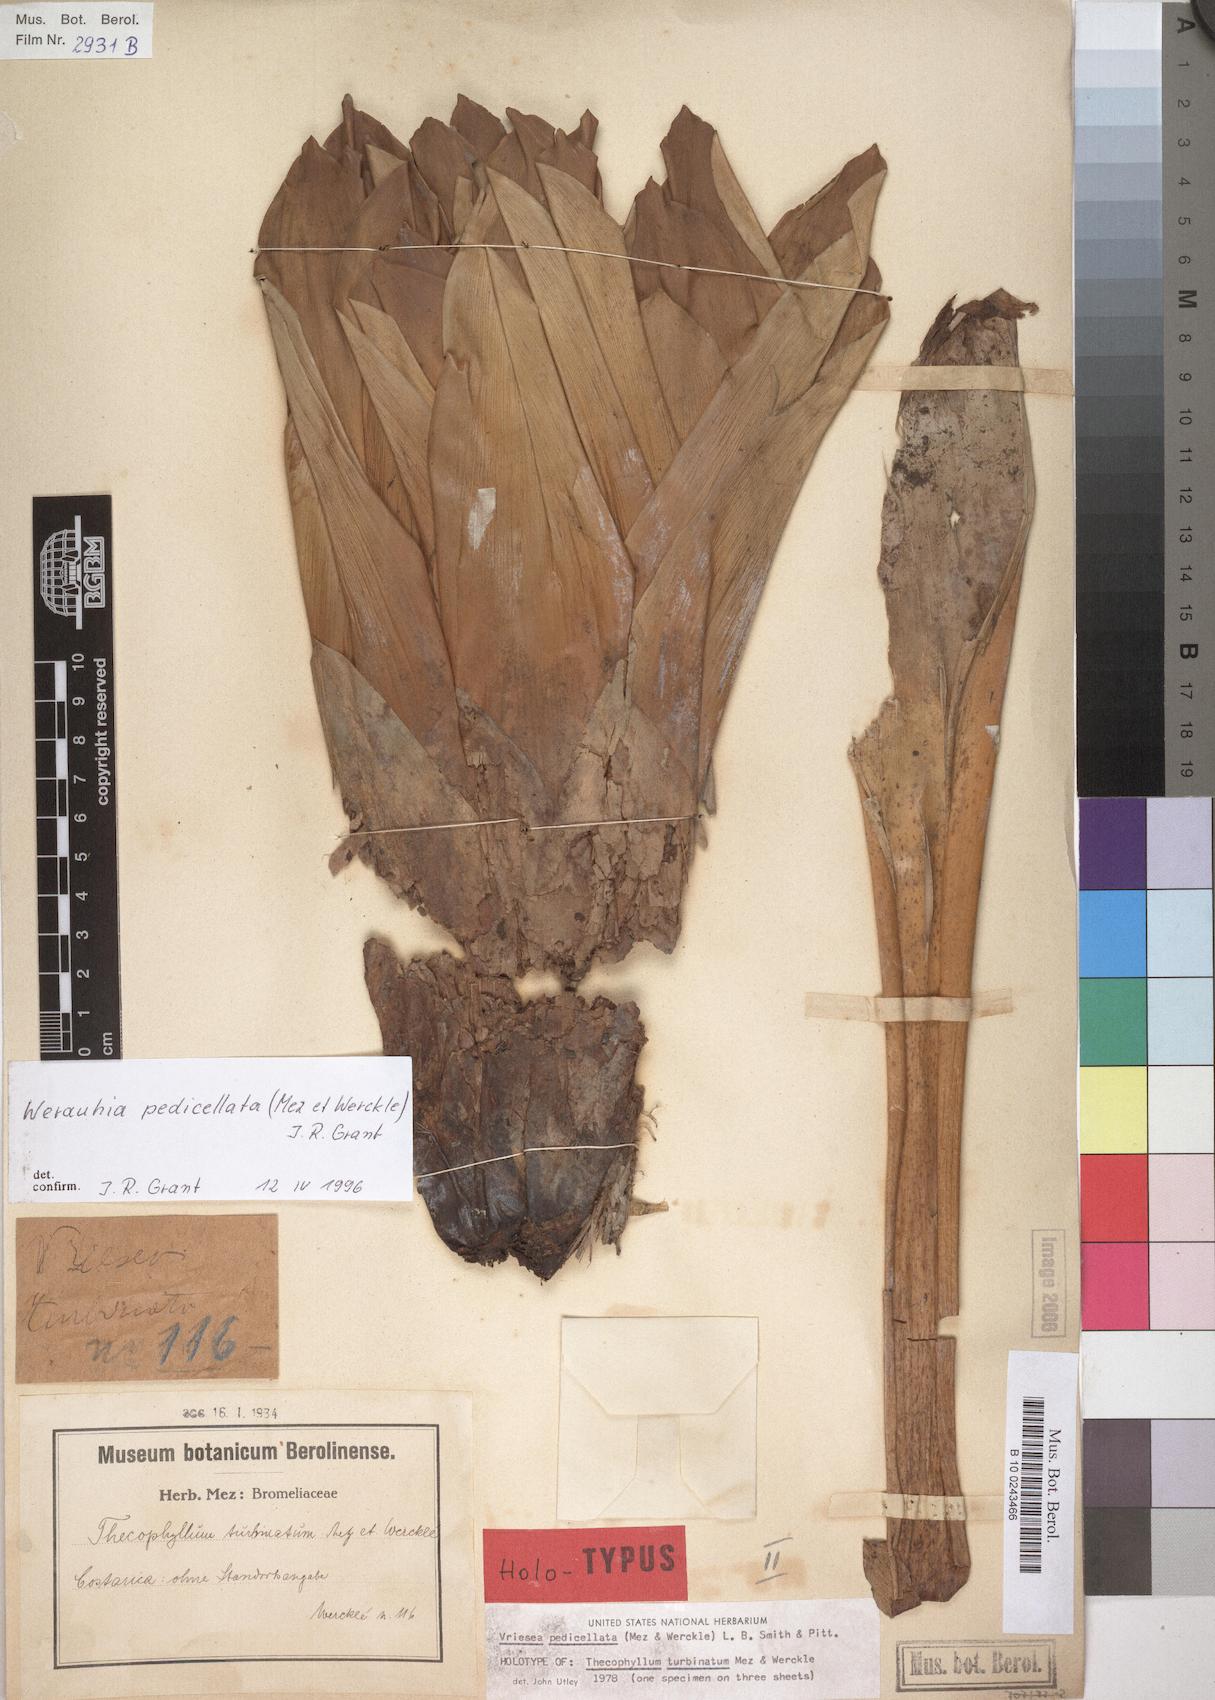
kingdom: Plantae
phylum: Tracheophyta
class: Liliopsida
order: Poales
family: Bromeliaceae
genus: Werauhia
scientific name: Werauhia pedicellata
